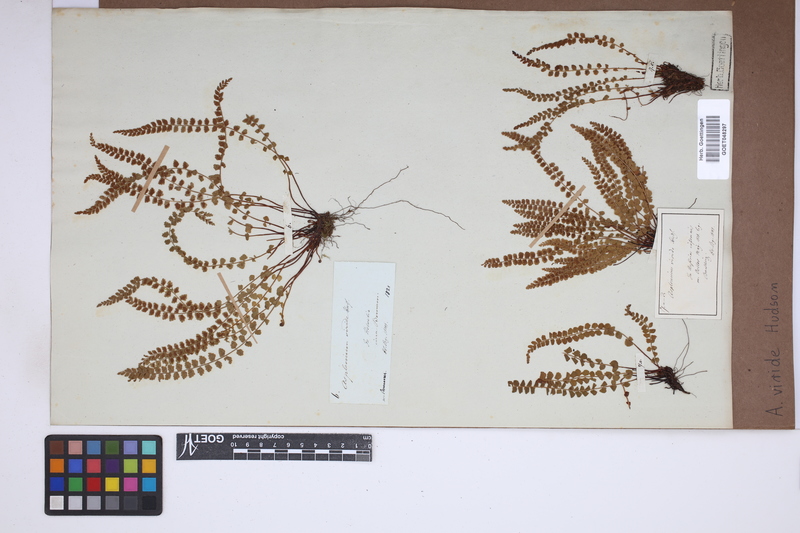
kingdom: Plantae
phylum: Tracheophyta
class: Polypodiopsida
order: Polypodiales
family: Aspleniaceae
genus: Asplenium
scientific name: Asplenium viride
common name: Green spleenwort
